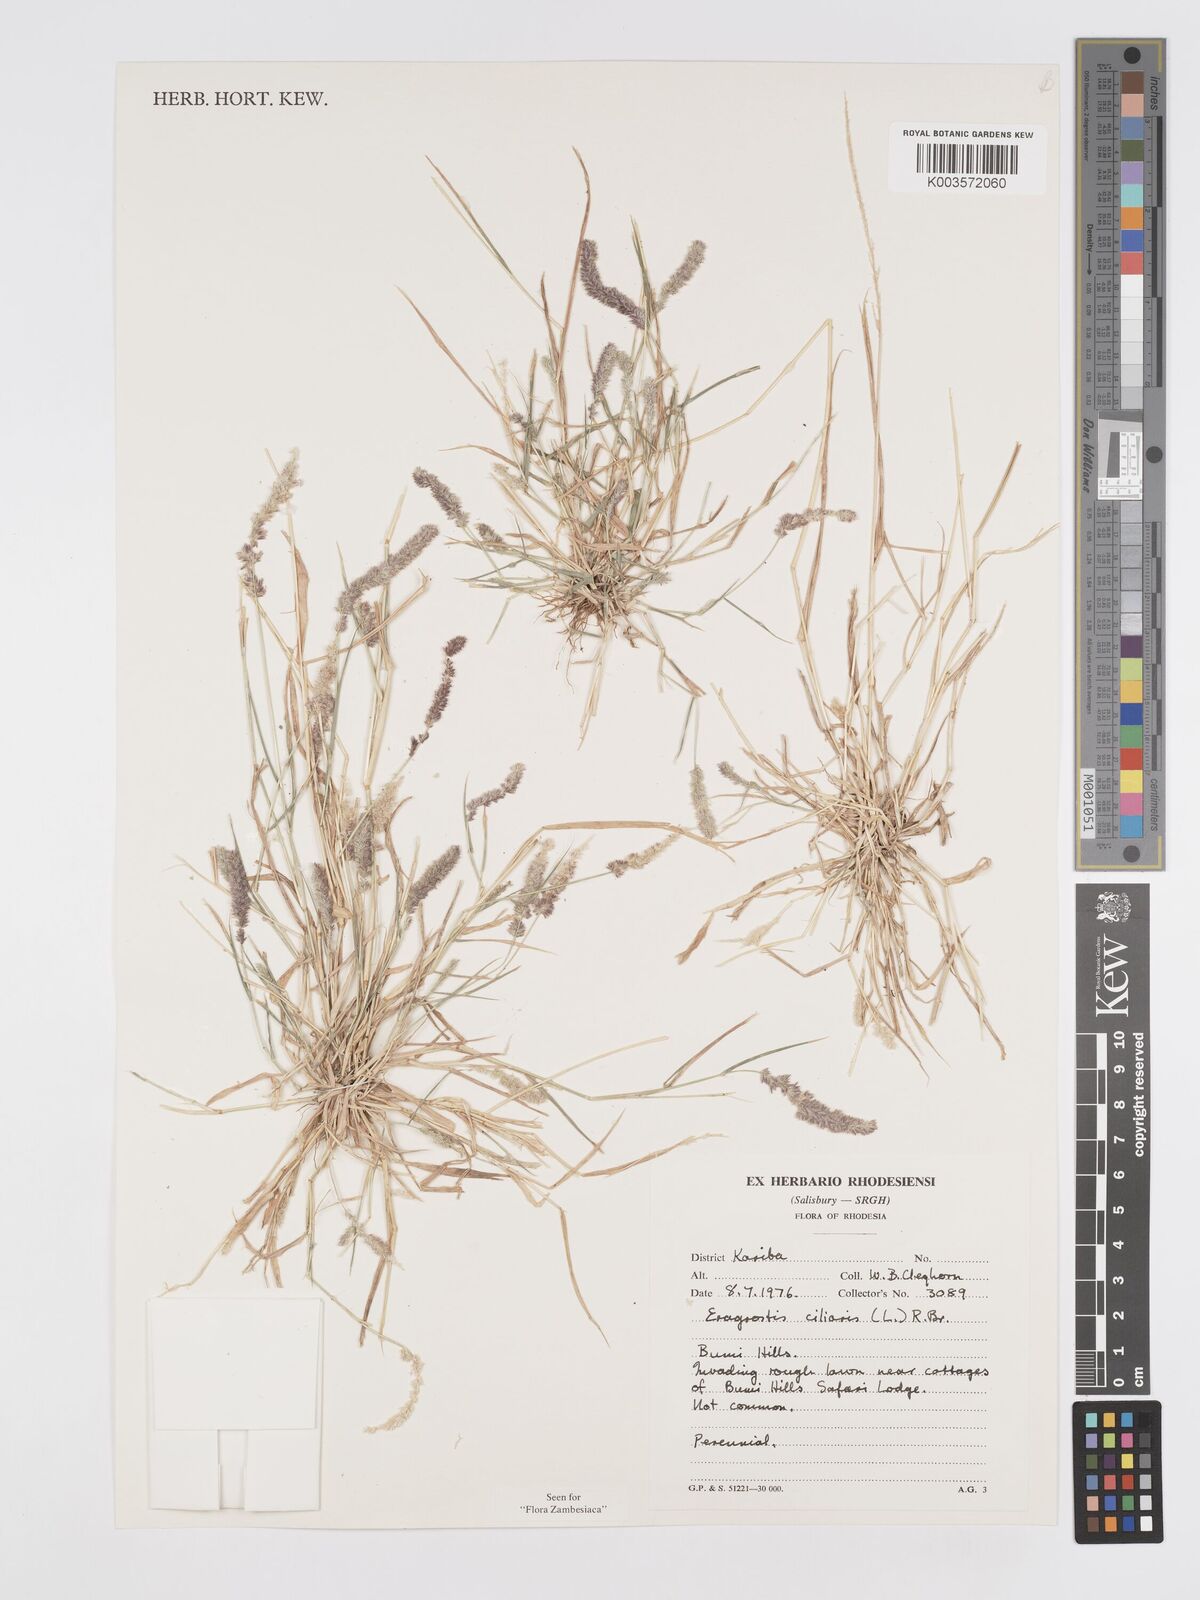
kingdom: Plantae
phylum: Tracheophyta
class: Liliopsida
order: Poales
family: Poaceae
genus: Eragrostis
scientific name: Eragrostis ciliaris
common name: Gophertail lovegrass
